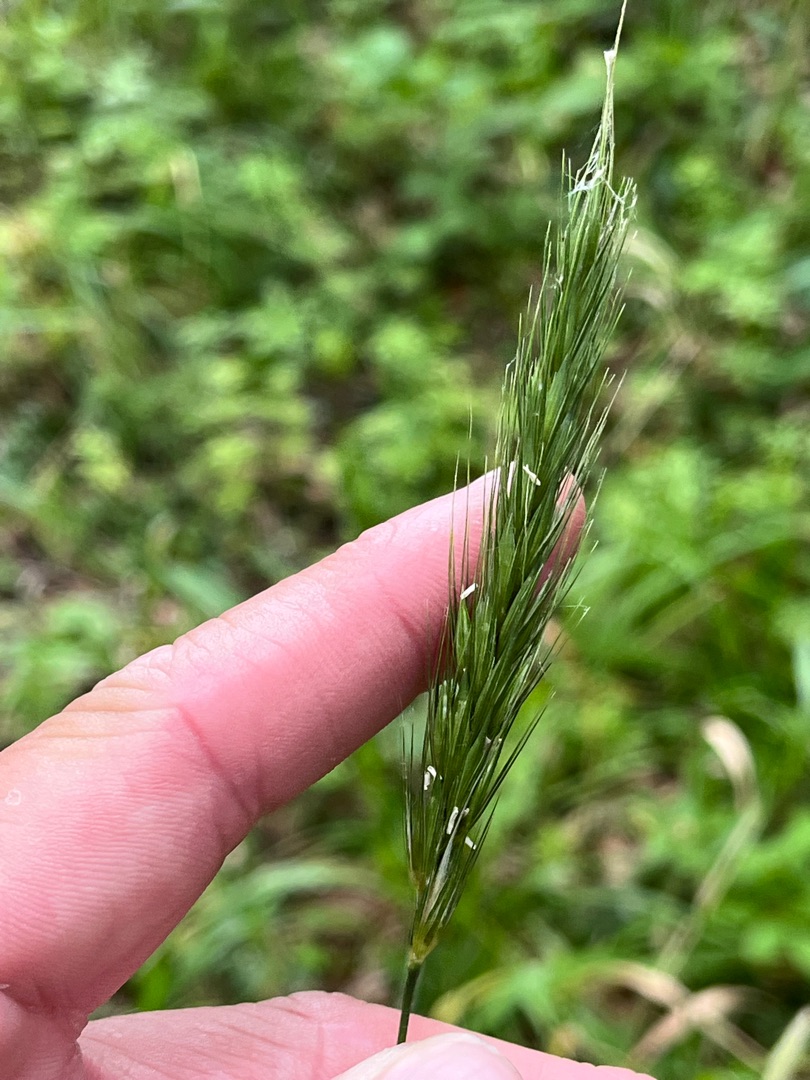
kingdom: Plantae
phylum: Tracheophyta
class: Liliopsida
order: Poales
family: Poaceae
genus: Hordelymus
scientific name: Hordelymus europaeus
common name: Skovbyg
